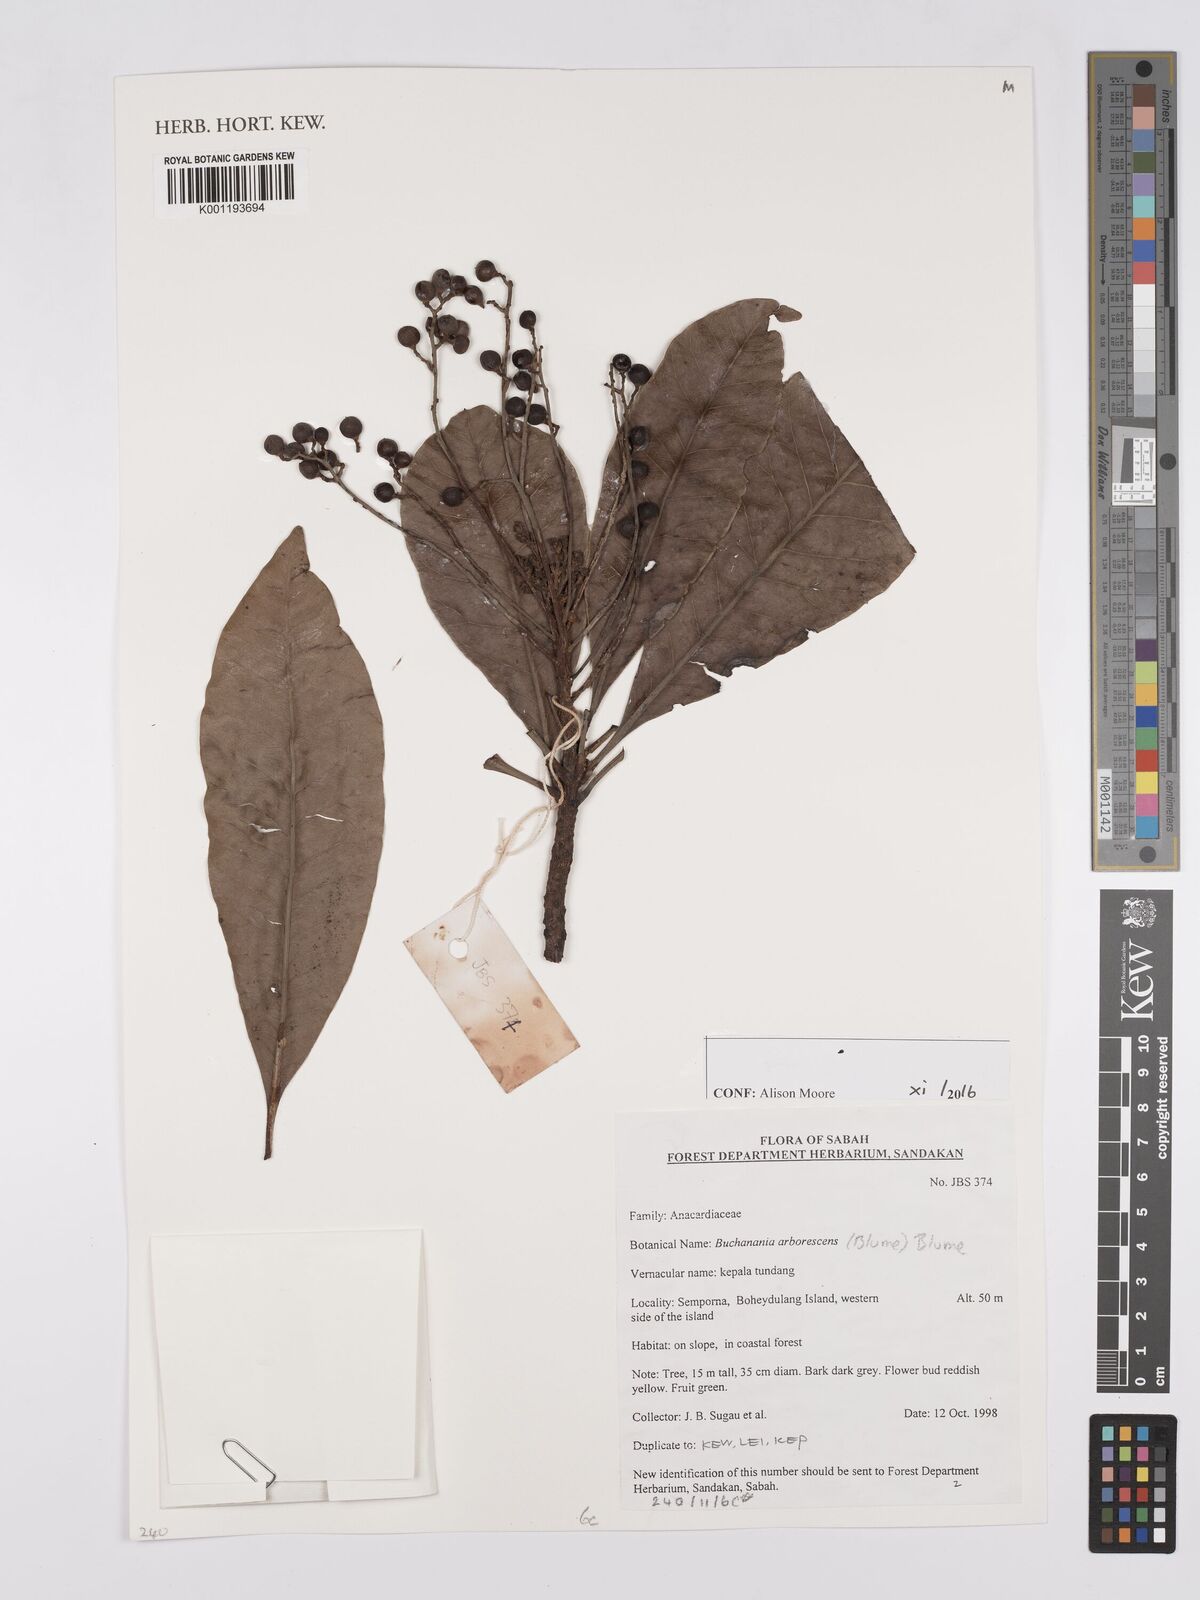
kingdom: Plantae
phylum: Tracheophyta
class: Magnoliopsida
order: Sapindales
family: Anacardiaceae
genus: Buchanania
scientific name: Buchanania arborescens
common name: Sparrow’s mango
